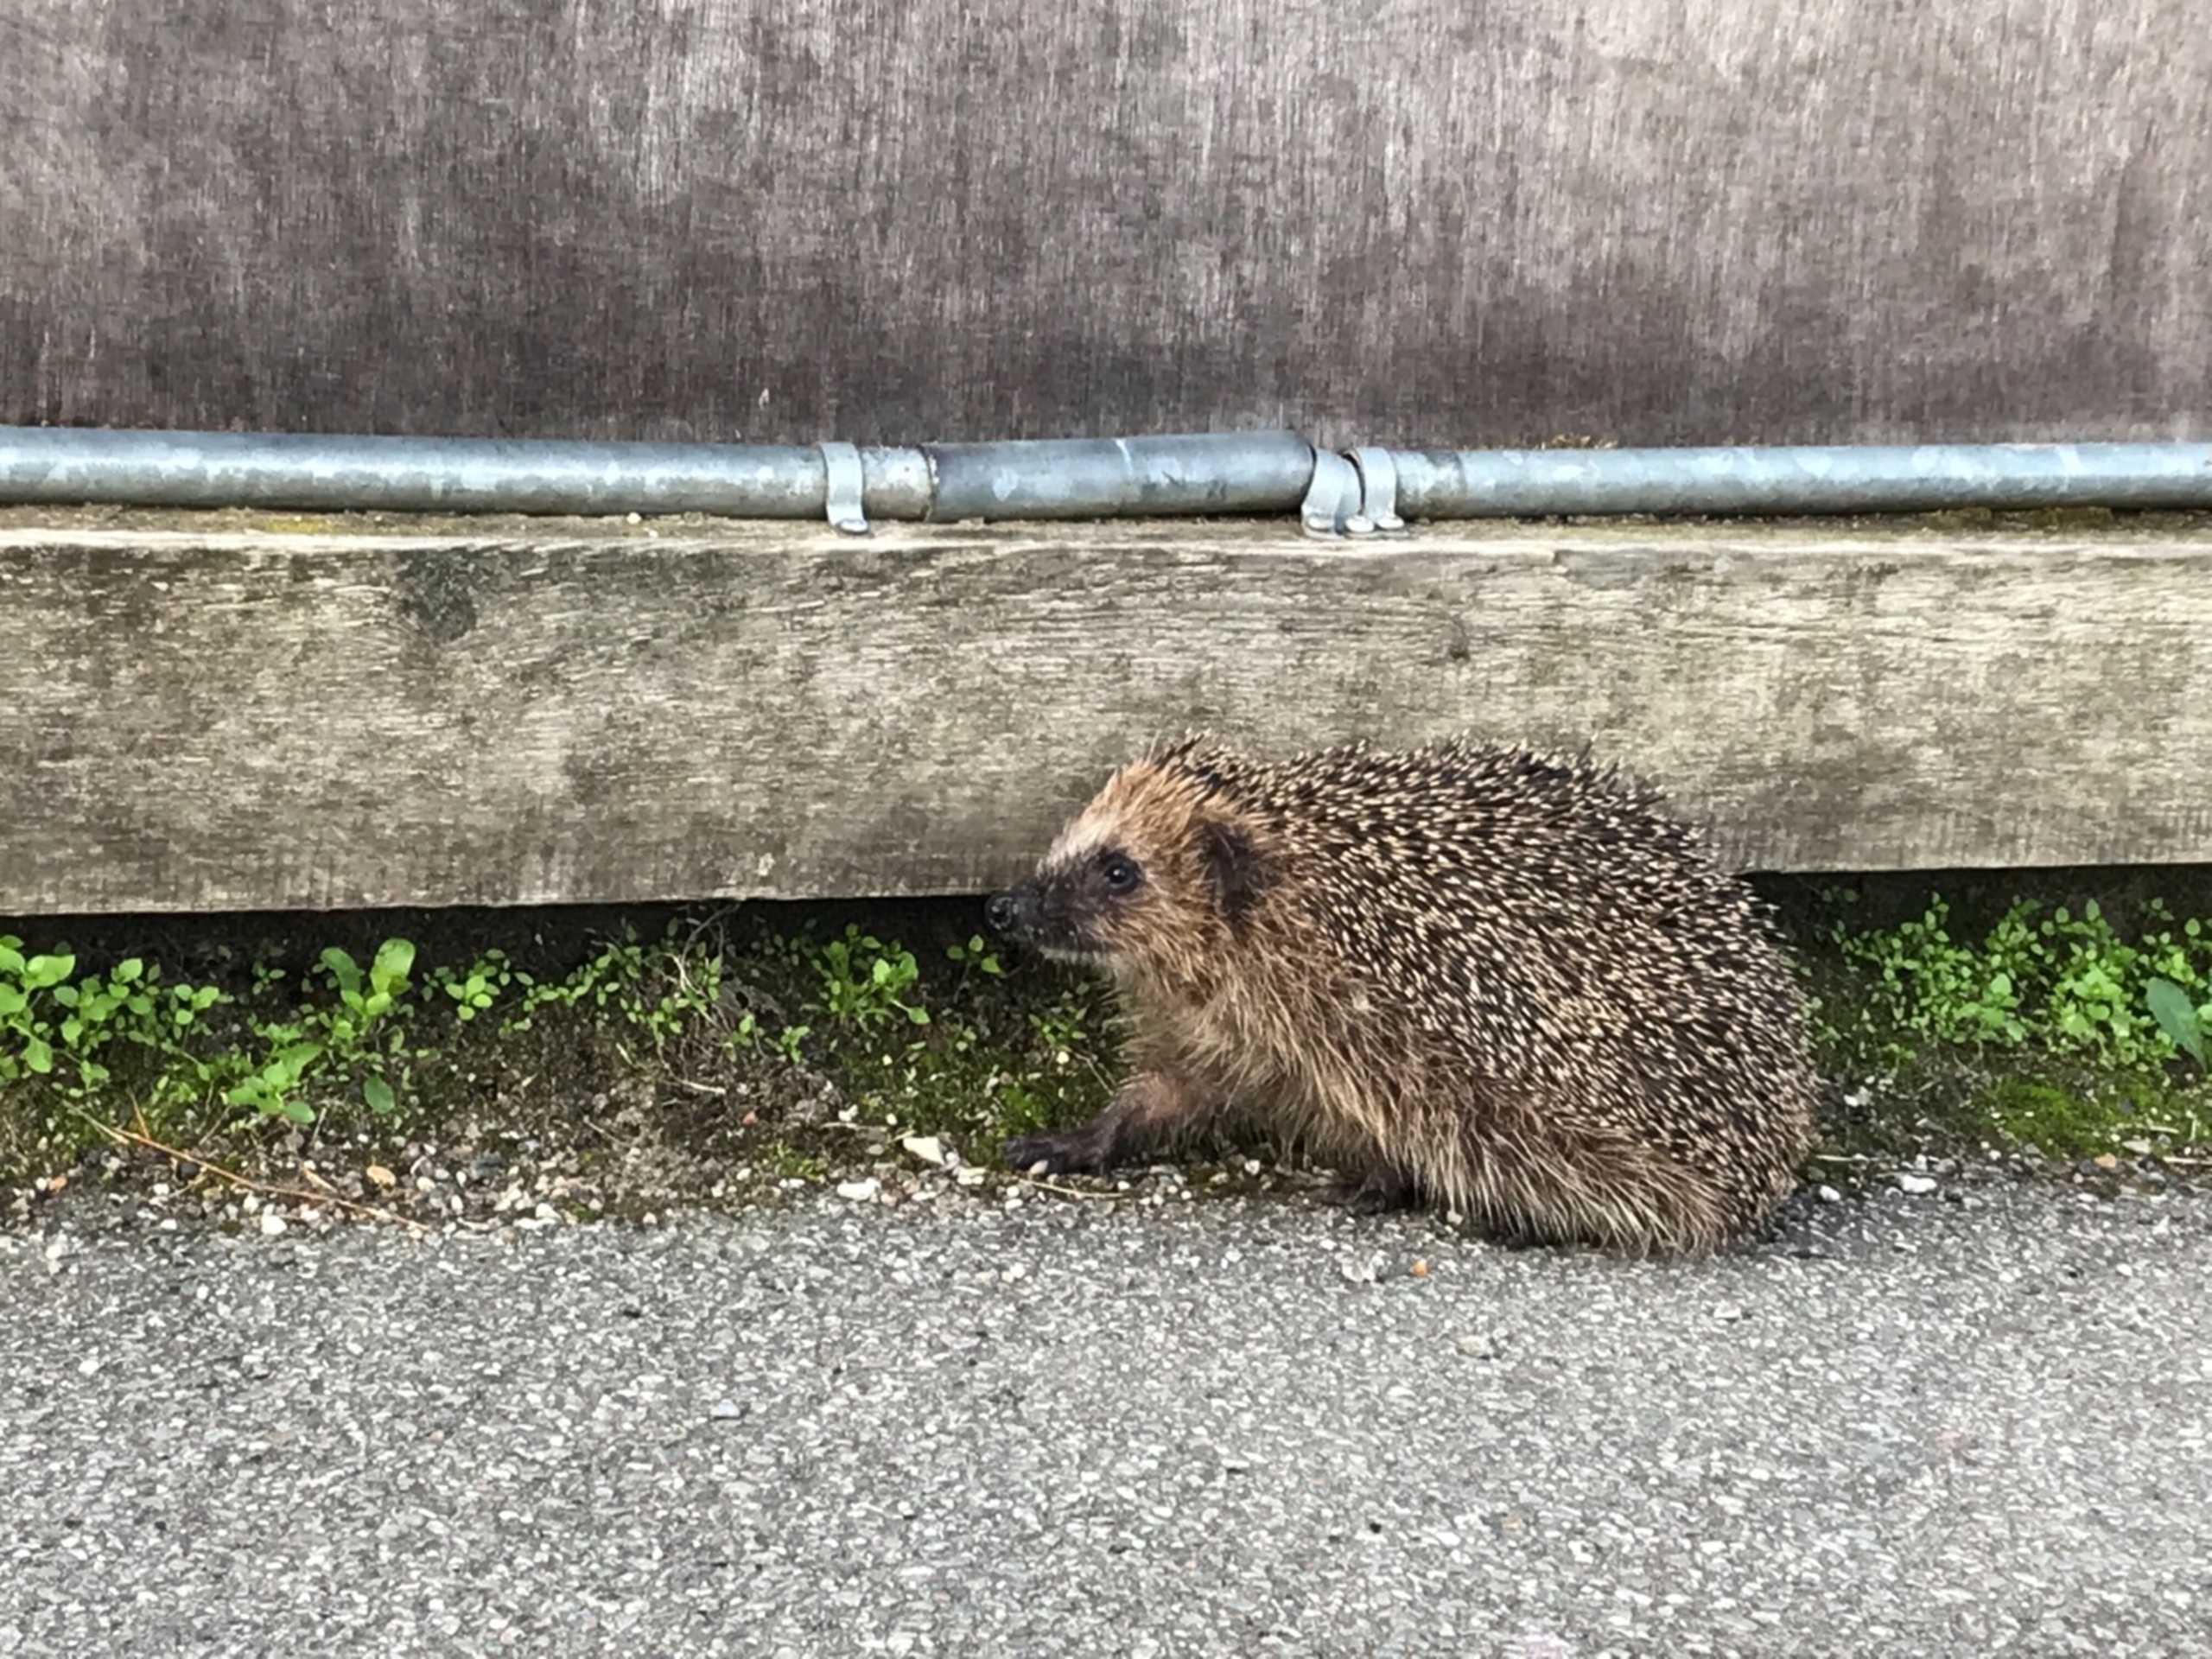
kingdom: Animalia
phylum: Chordata
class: Mammalia
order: Erinaceomorpha
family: Erinaceidae
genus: Erinaceus
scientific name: Erinaceus europaeus
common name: Pindsvin
